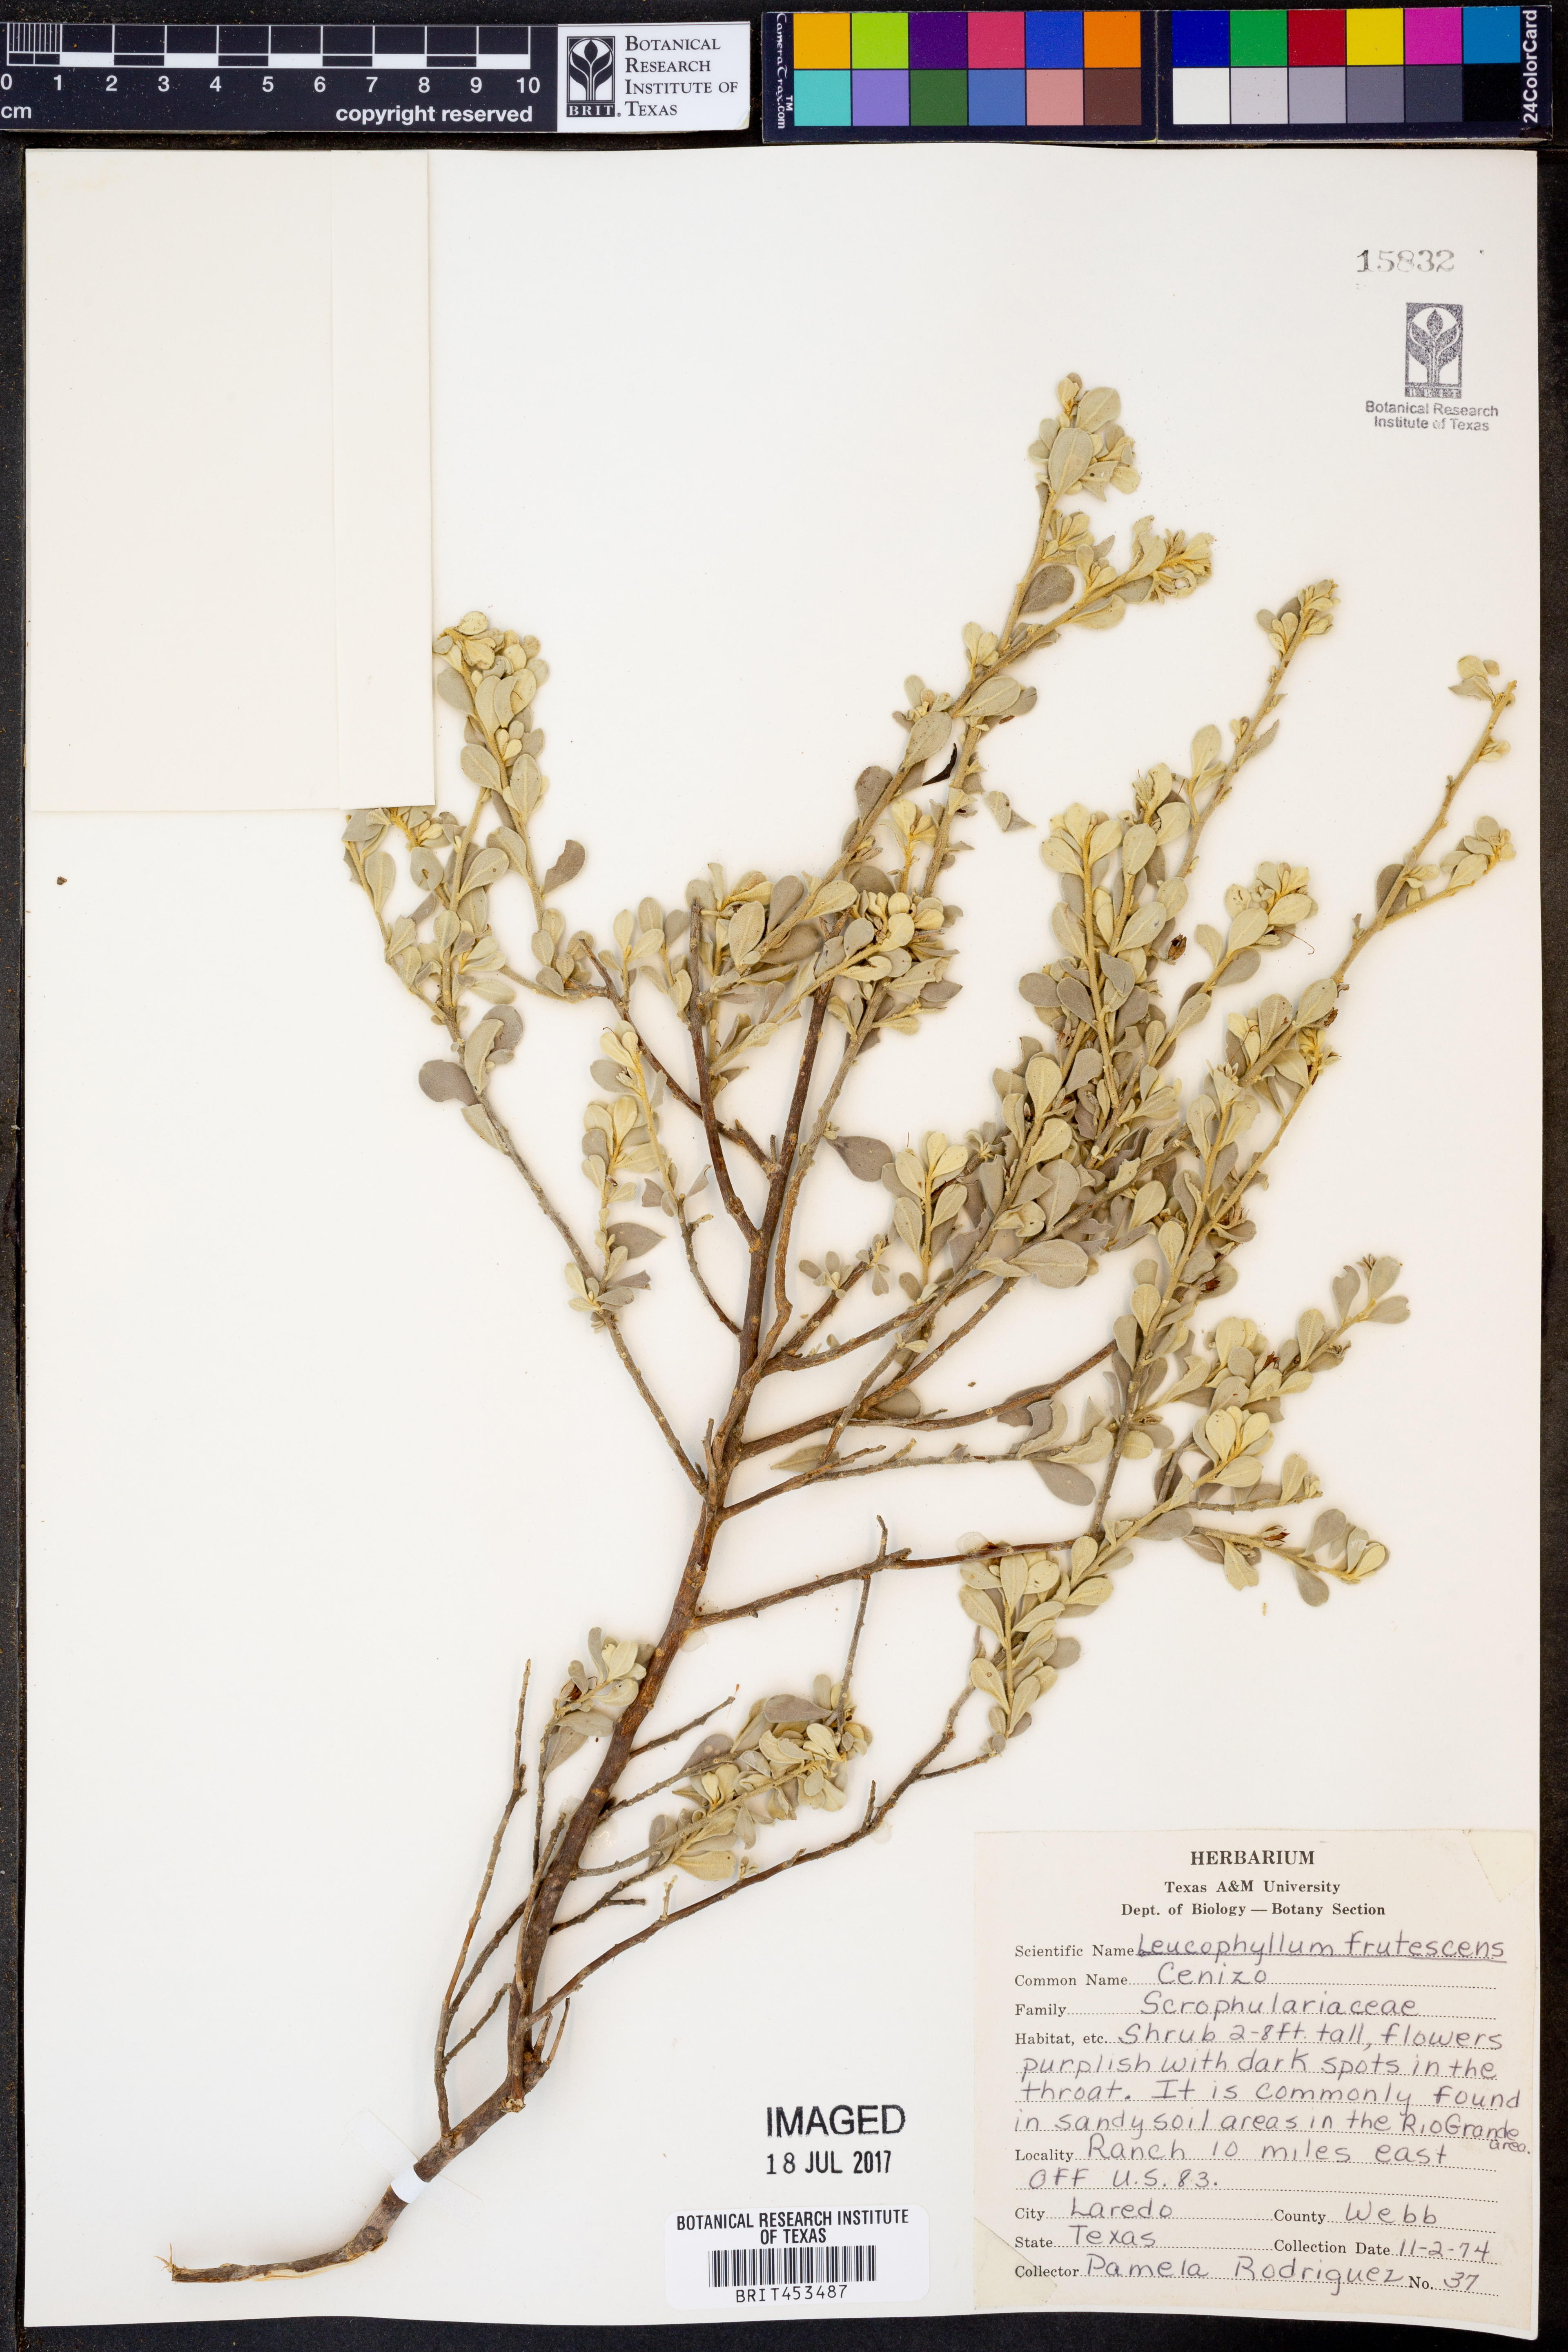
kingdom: Plantae
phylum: Tracheophyta
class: Magnoliopsida
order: Lamiales
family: Scrophulariaceae
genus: Leucophyllum
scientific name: Leucophyllum frutescens
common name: Texas silverleaf
